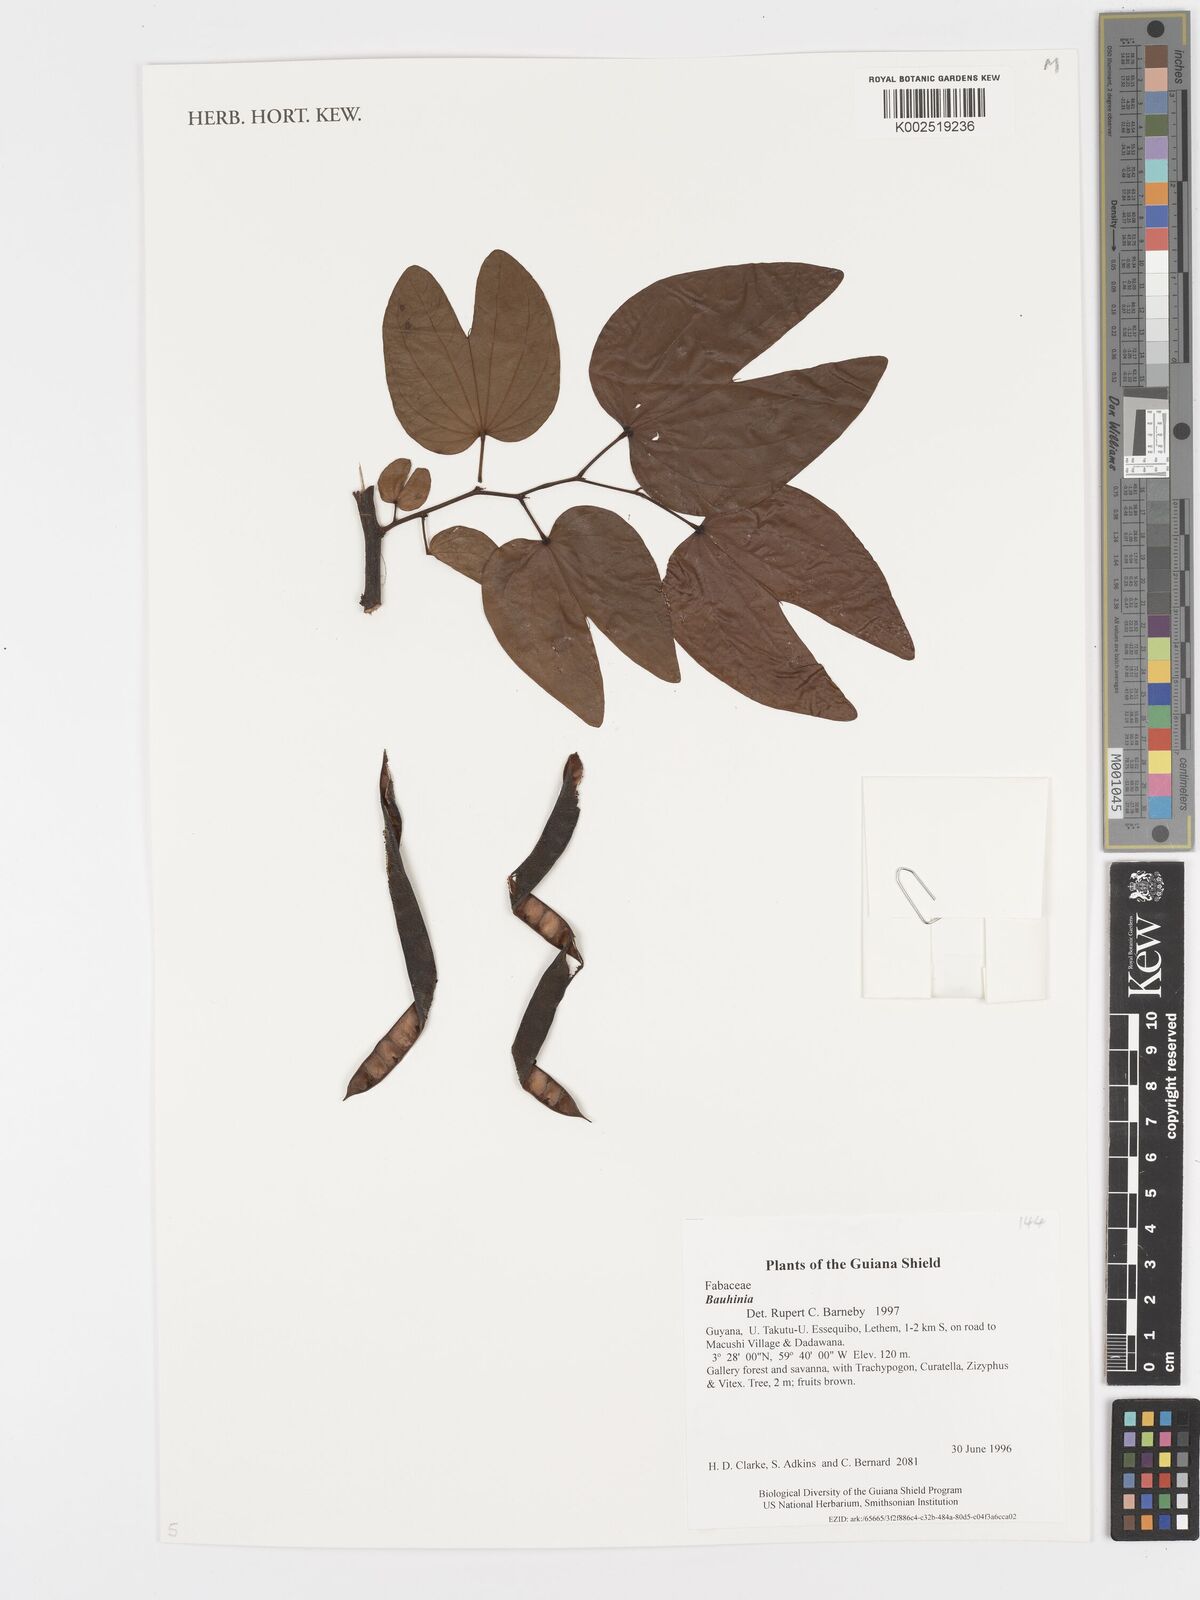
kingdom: Plantae
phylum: Tracheophyta
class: Magnoliopsida
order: Fabales
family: Fabaceae
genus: Bauhinia
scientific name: Bauhinia
